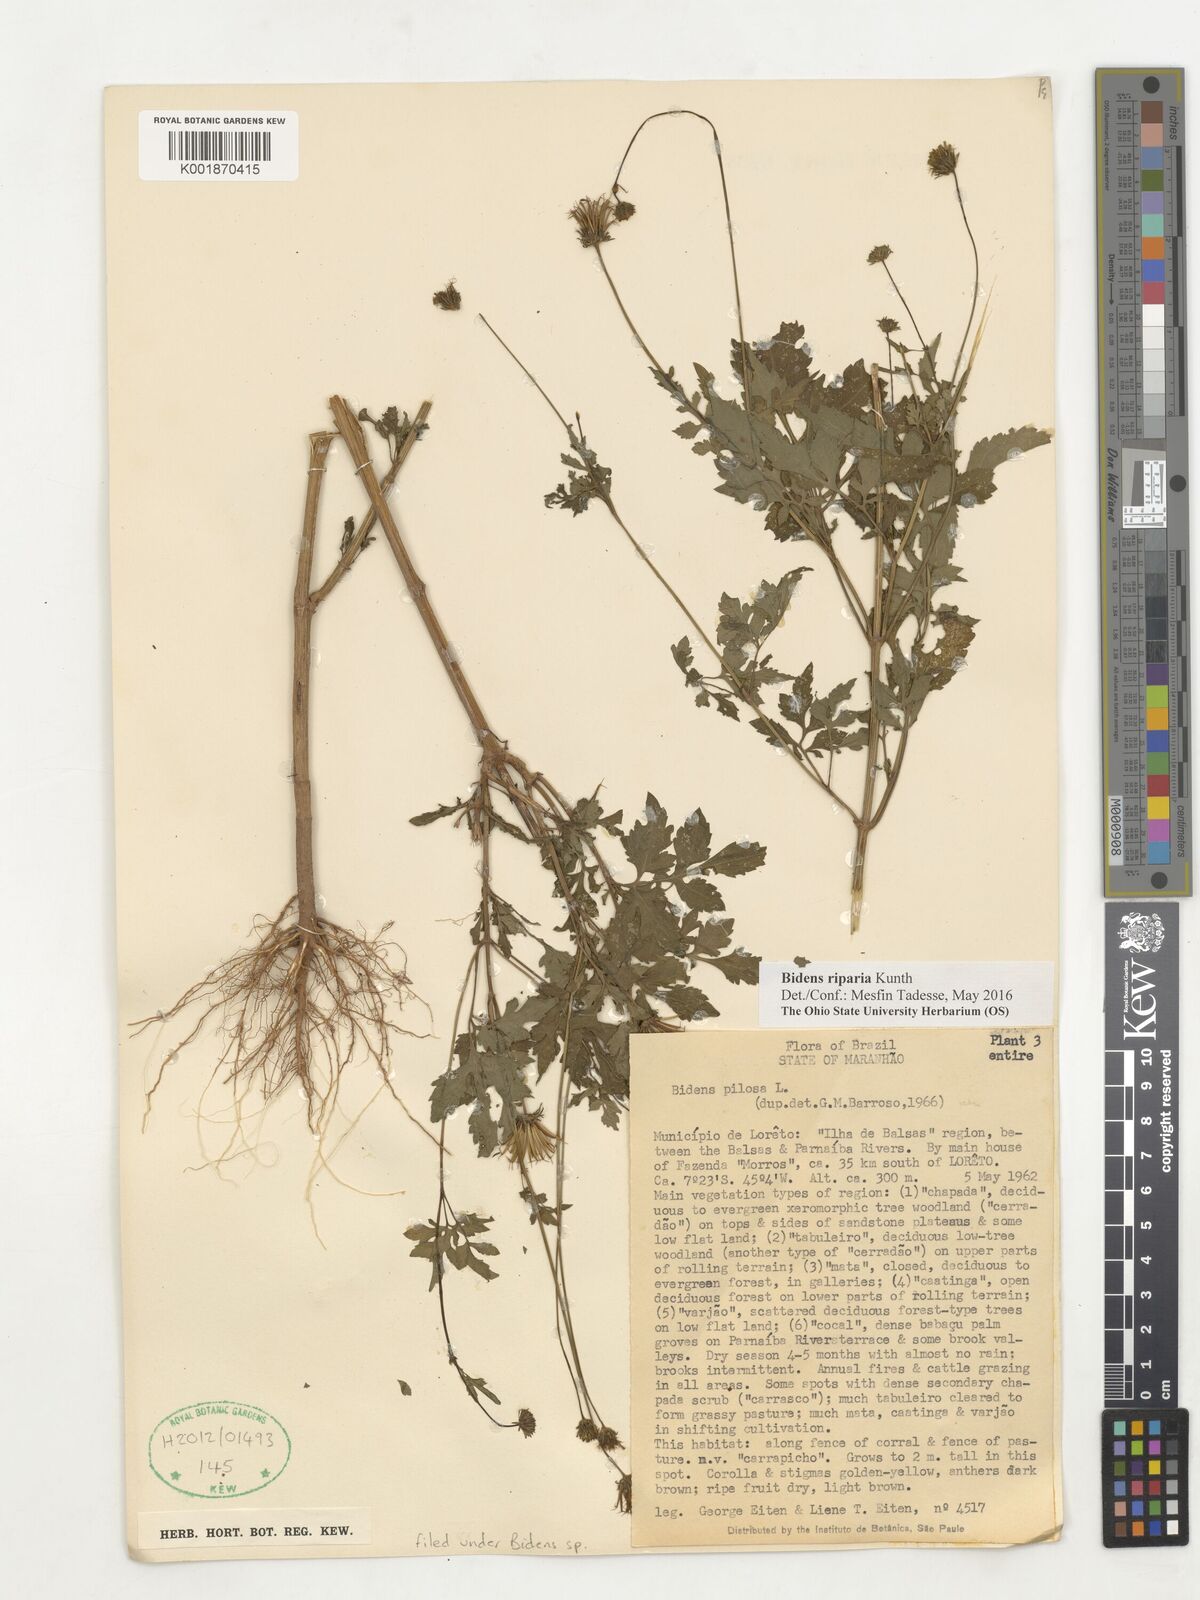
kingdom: Plantae
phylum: Tracheophyta
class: Magnoliopsida
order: Asterales
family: Asteraceae
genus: Bidens
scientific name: Bidens riparia
